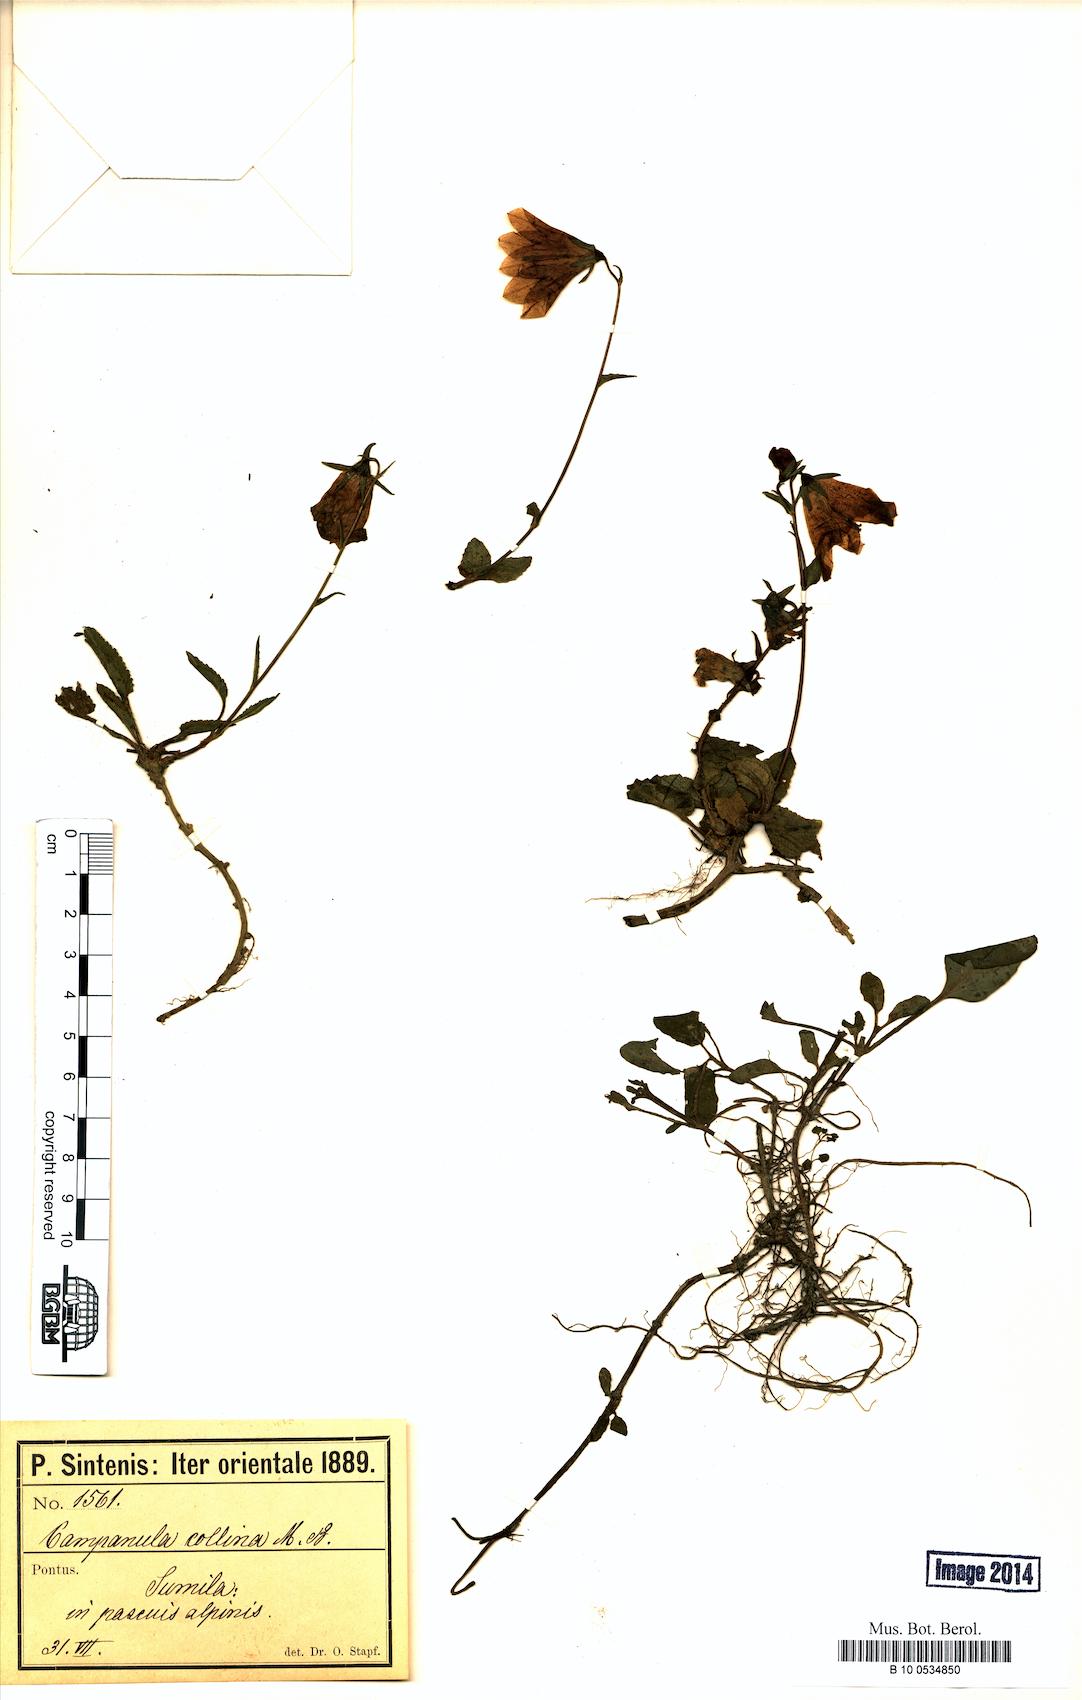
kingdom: Plantae
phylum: Tracheophyta
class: Magnoliopsida
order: Asterales
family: Campanulaceae
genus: Campanula
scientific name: Campanula collina
